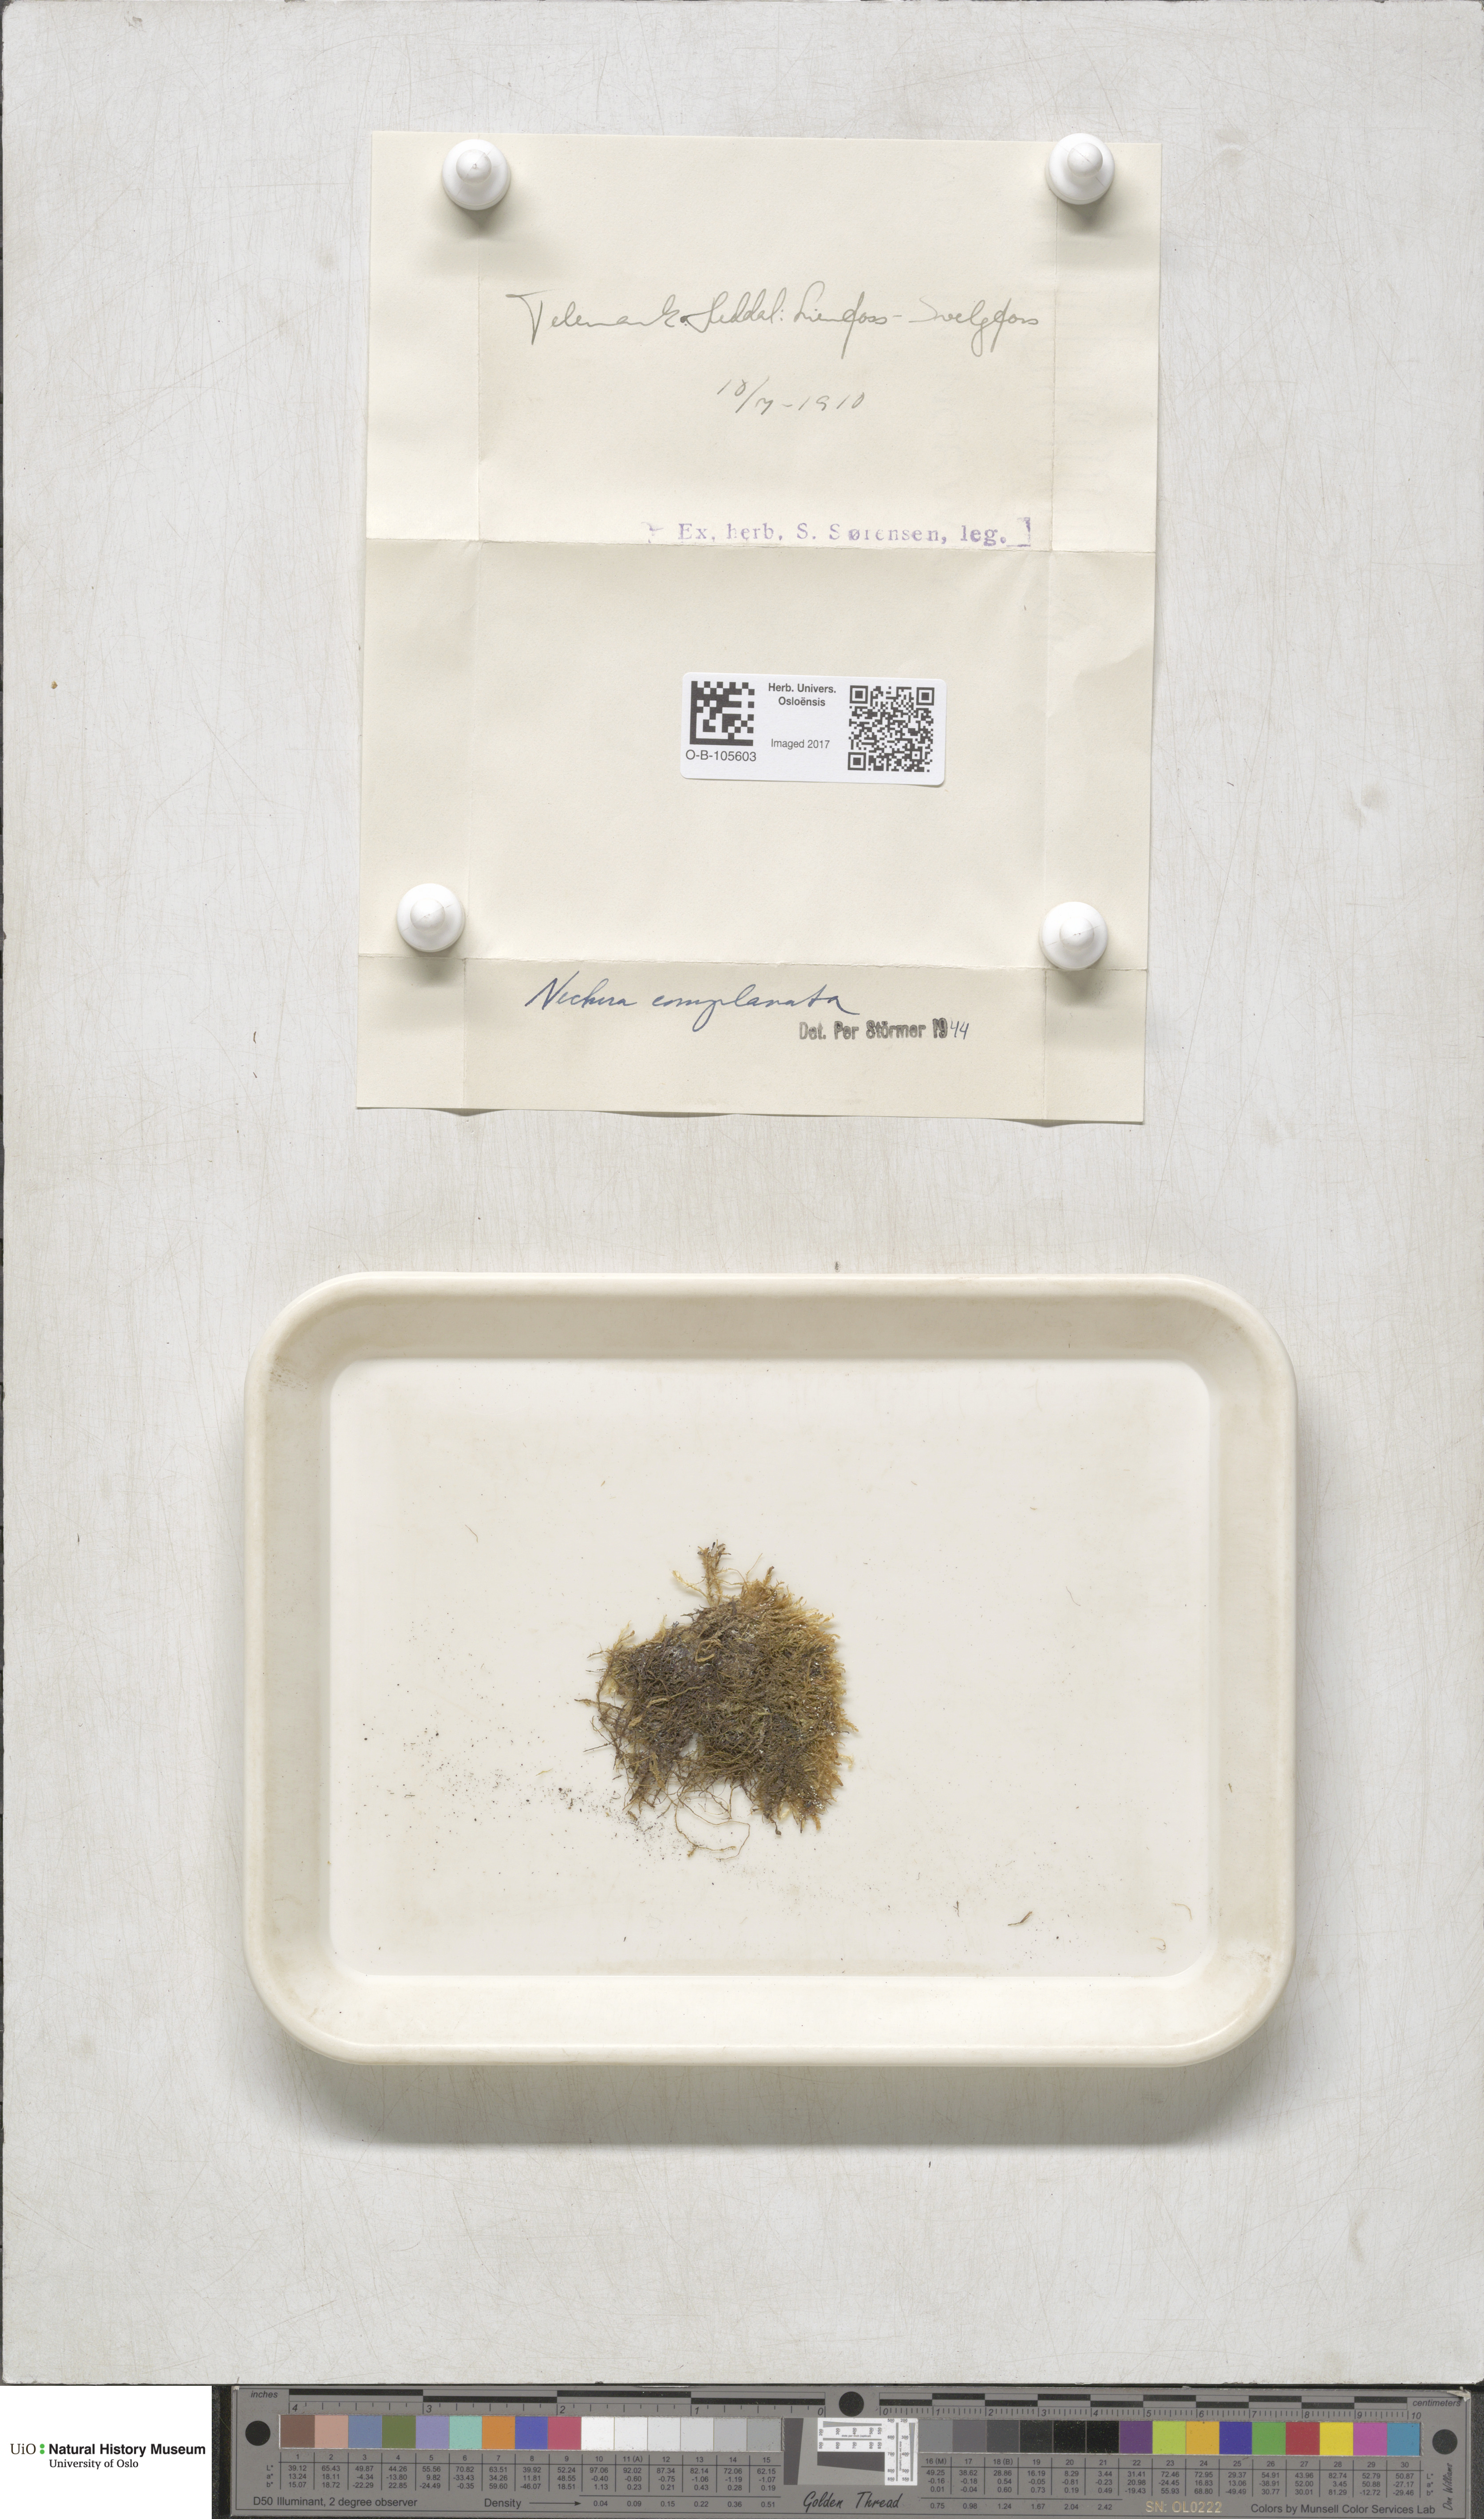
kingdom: Plantae
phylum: Bryophyta
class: Bryopsida
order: Hypnales
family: Neckeraceae
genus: Alleniella
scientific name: Alleniella complanata
